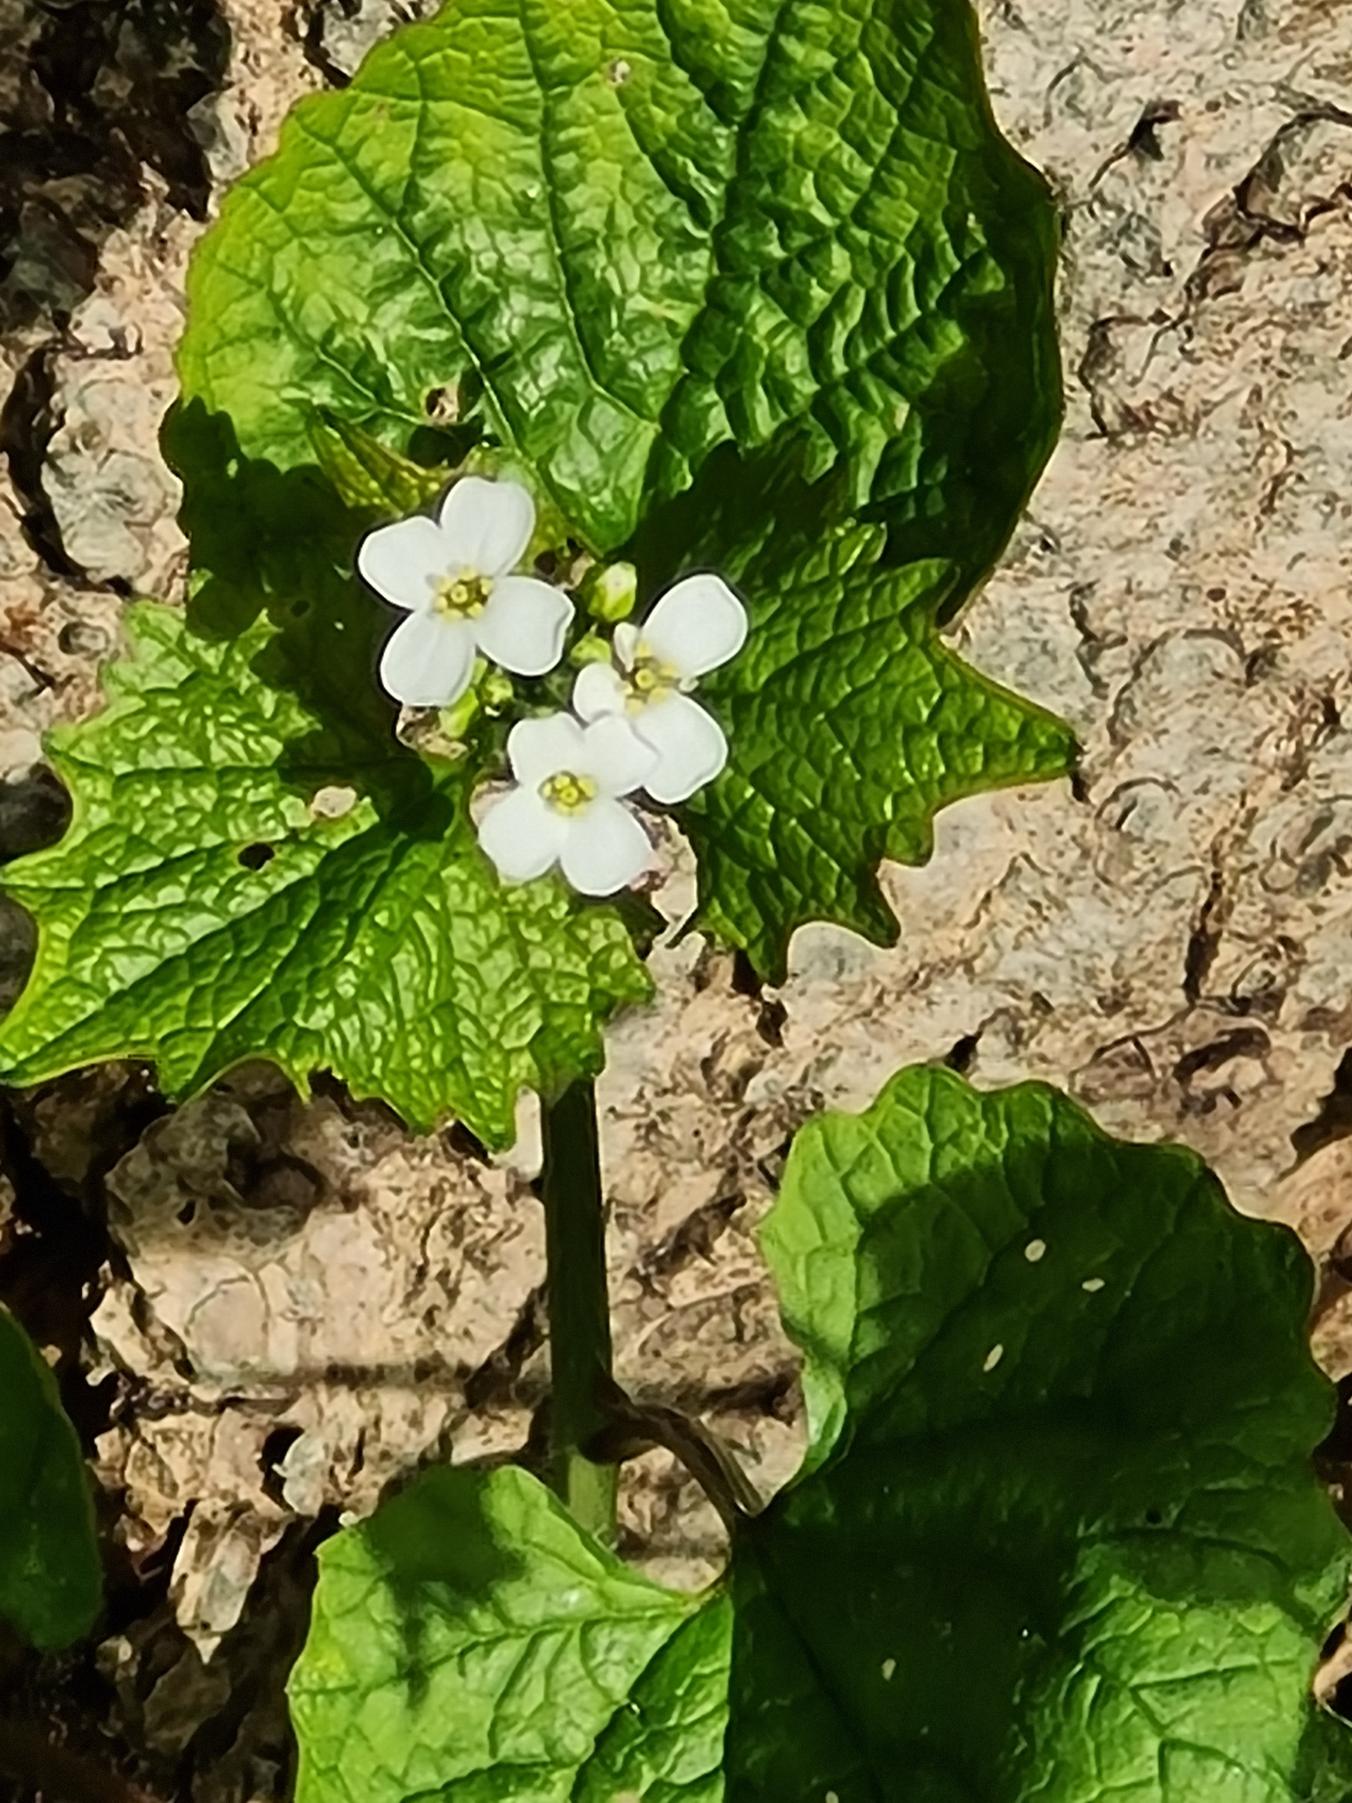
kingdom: Plantae
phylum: Tracheophyta
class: Magnoliopsida
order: Brassicales
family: Brassicaceae
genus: Alliaria
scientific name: Alliaria petiolata
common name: Løgkarse
